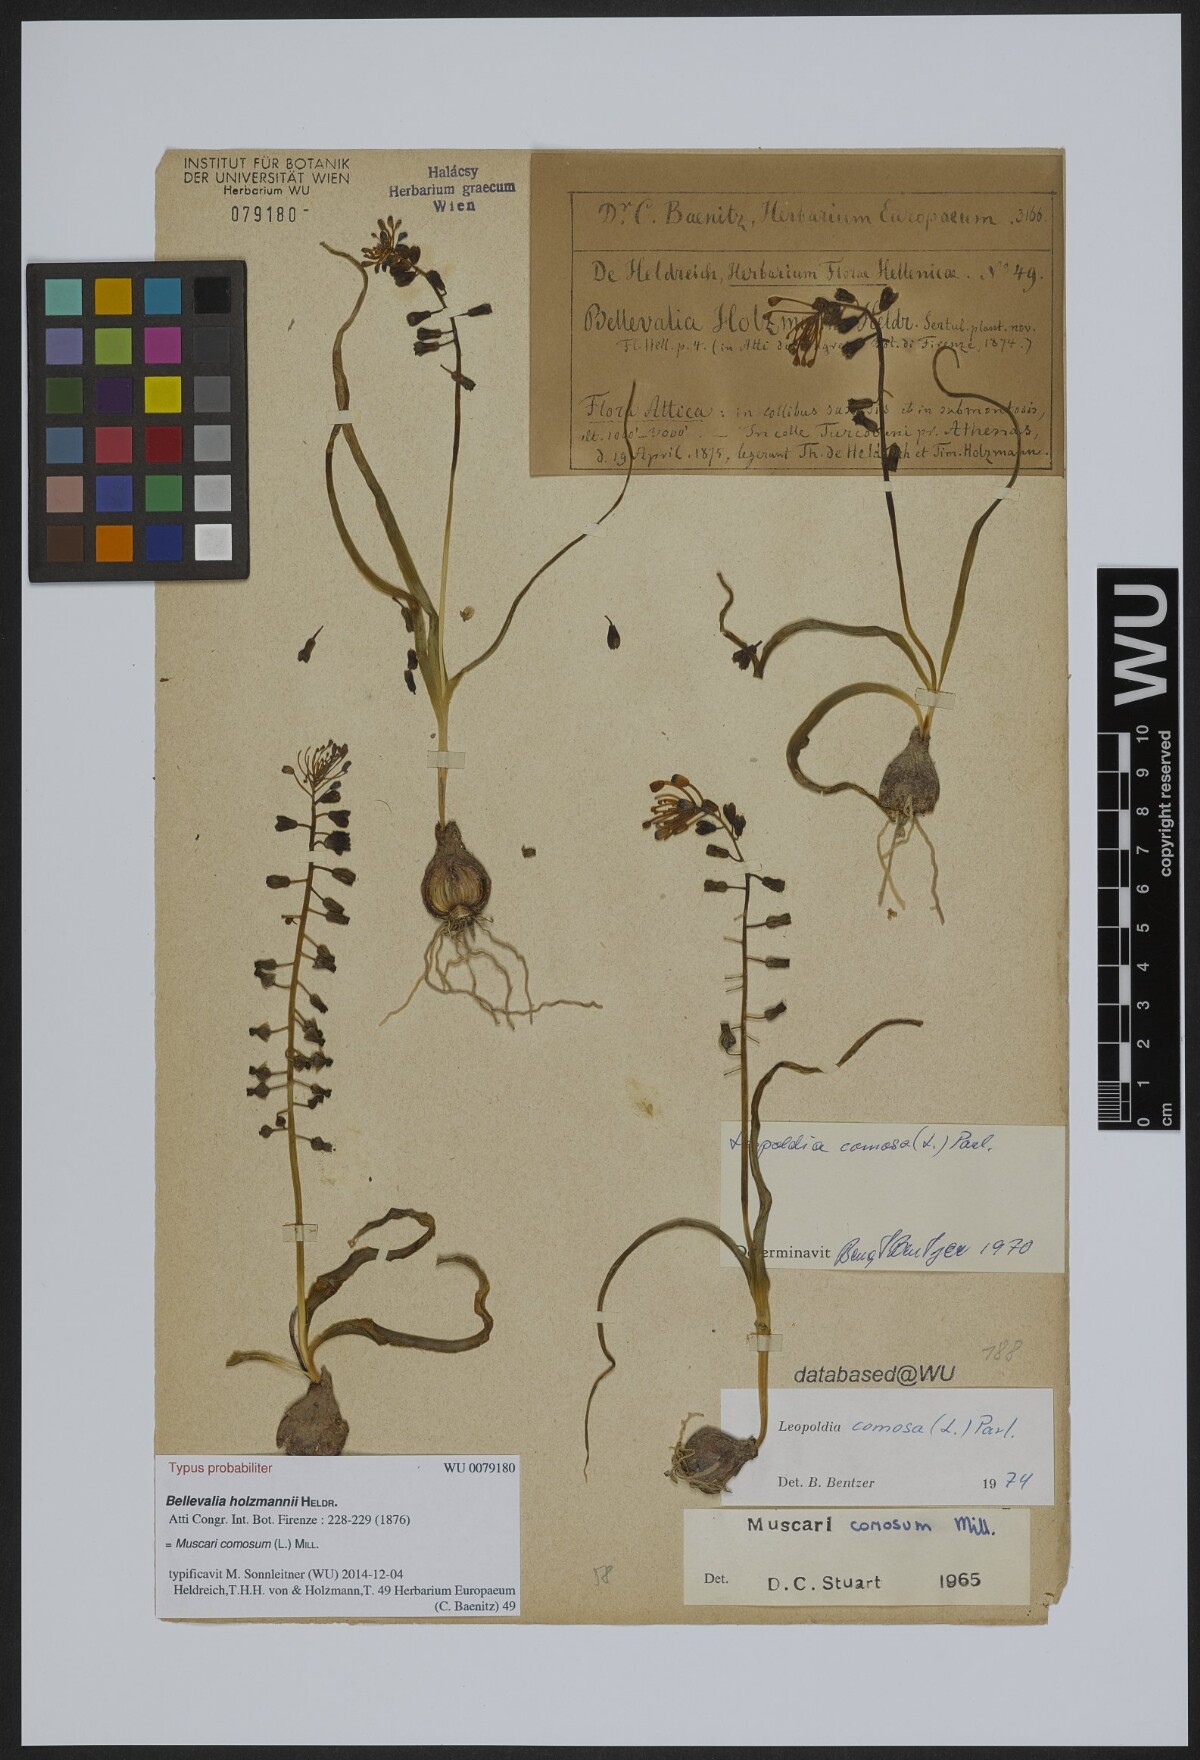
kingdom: Plantae
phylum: Tracheophyta
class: Liliopsida
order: Asparagales
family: Asparagaceae
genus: Muscari
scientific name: Muscari comosum
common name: Tassel hyacinth
